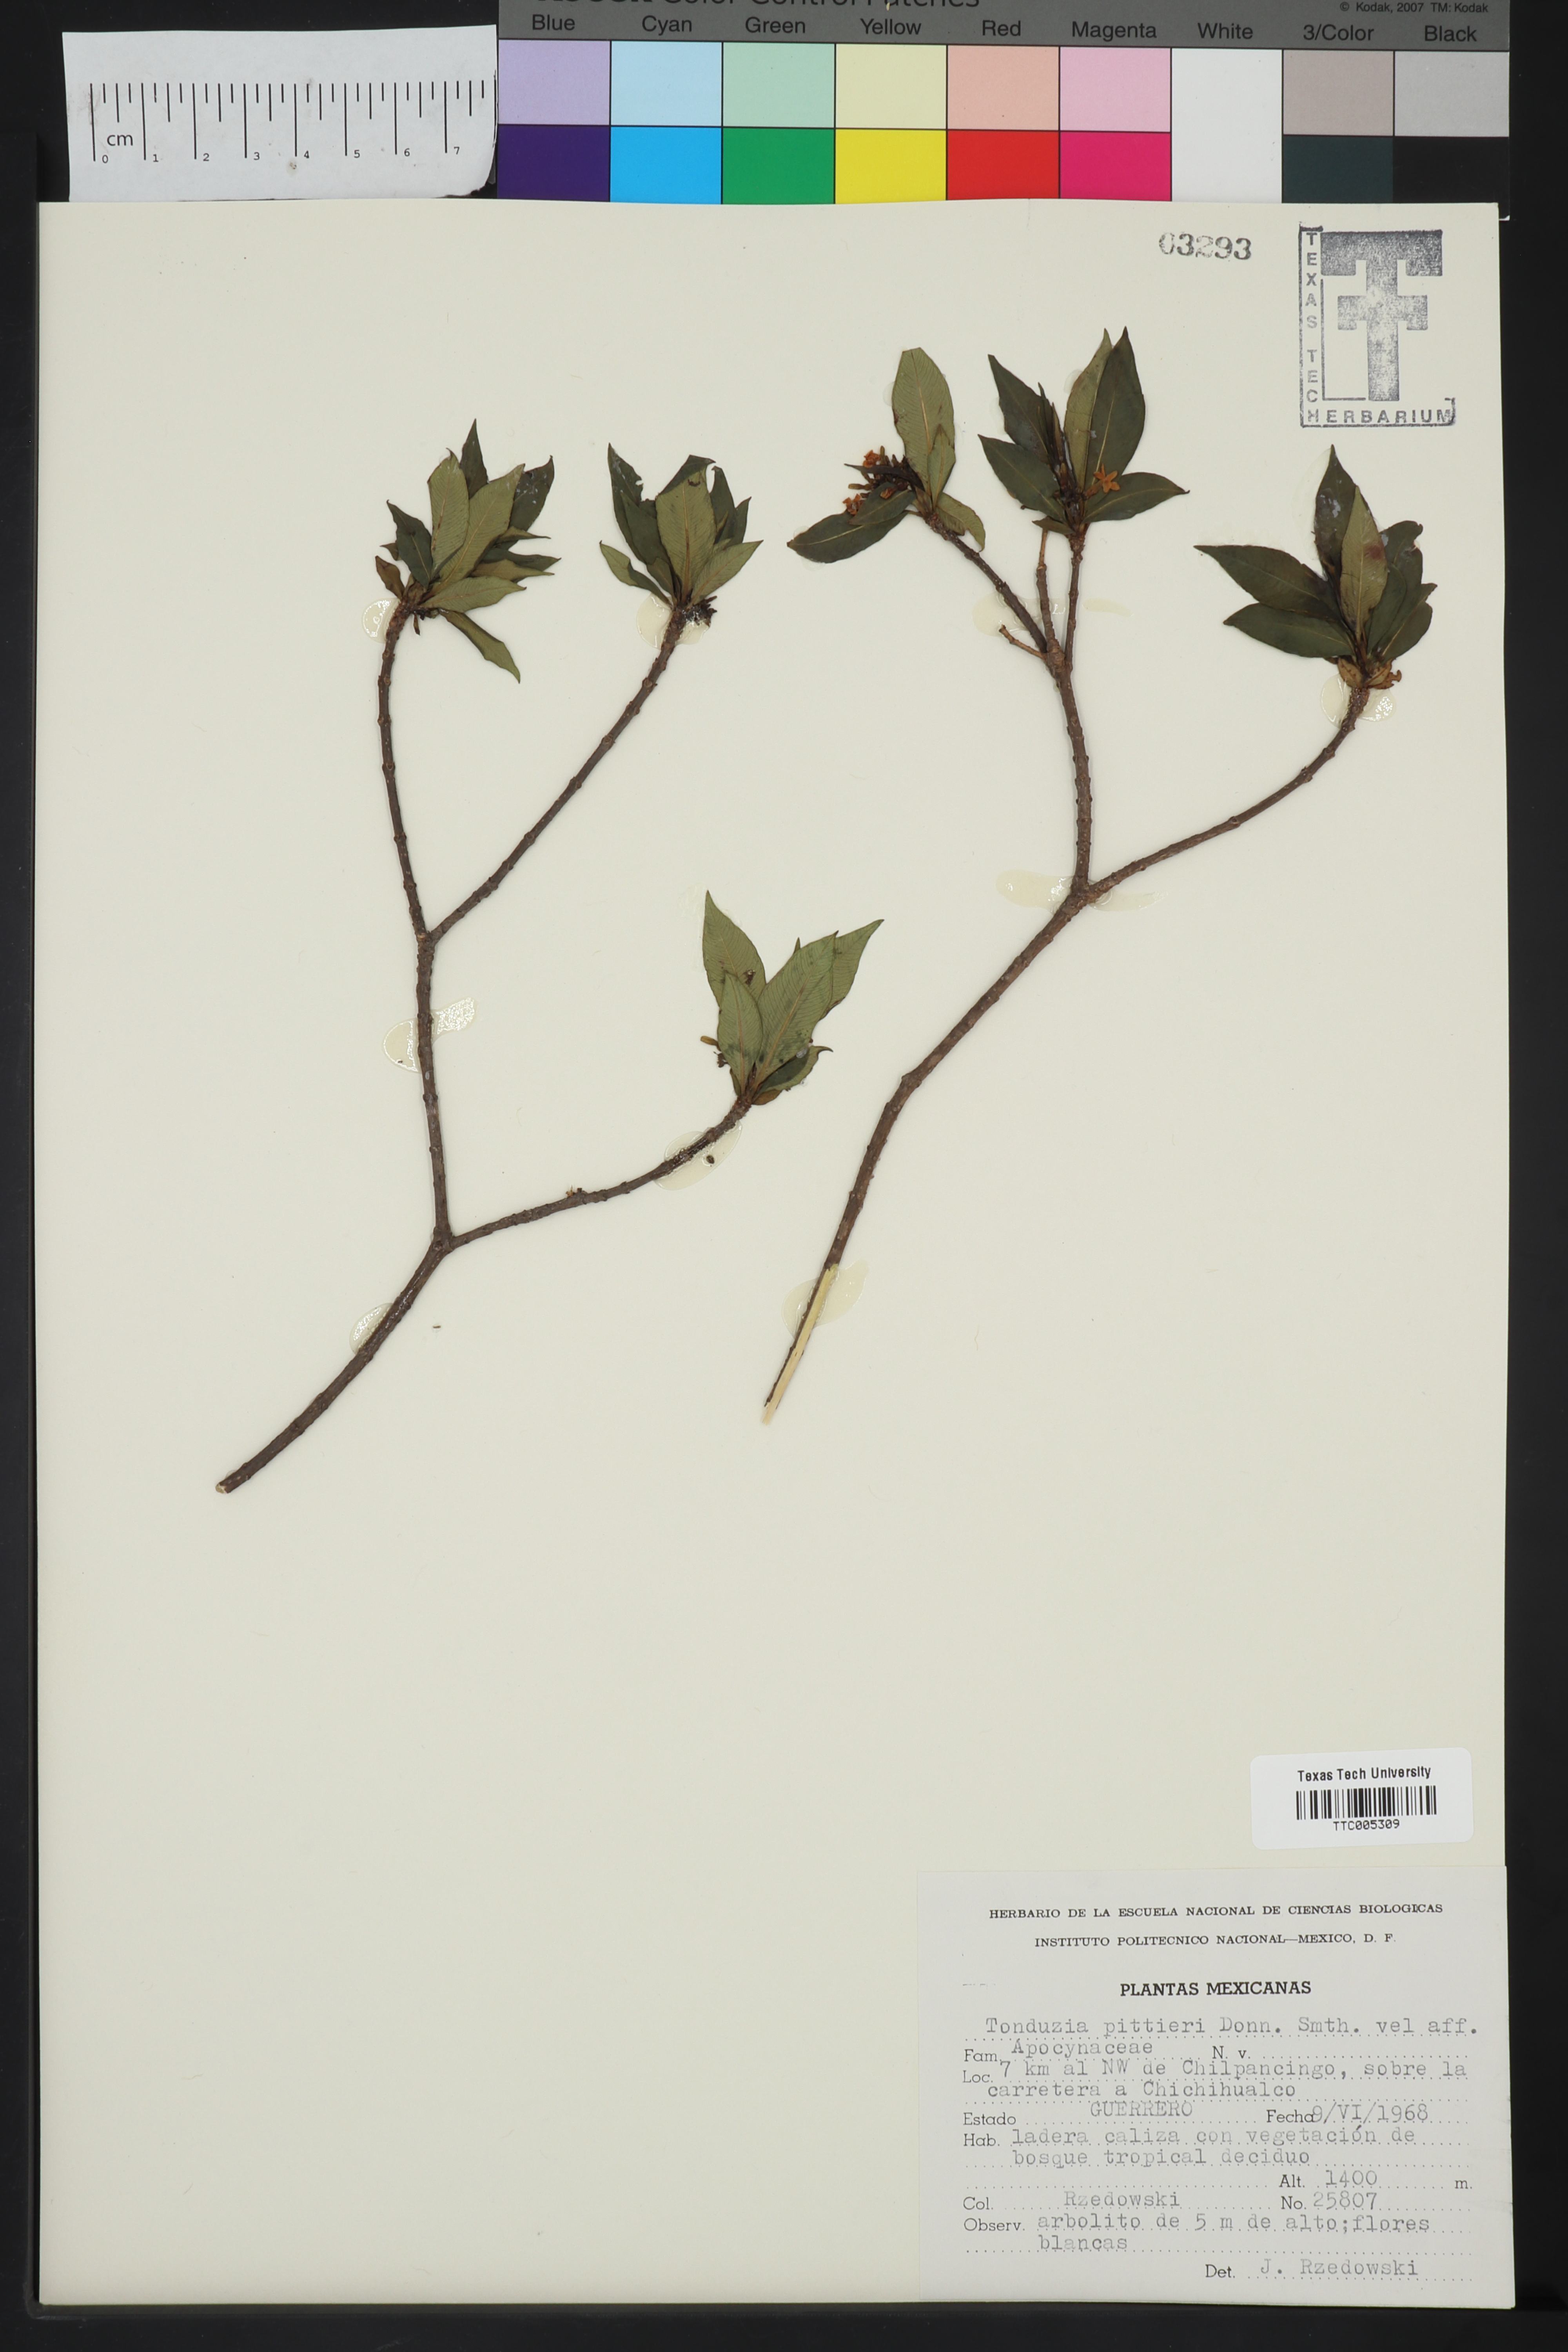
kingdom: Plantae
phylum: Tracheophyta
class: Magnoliopsida
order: Gentianales
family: Apocynaceae
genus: Tonduzia
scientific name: Tonduzia longifolia
